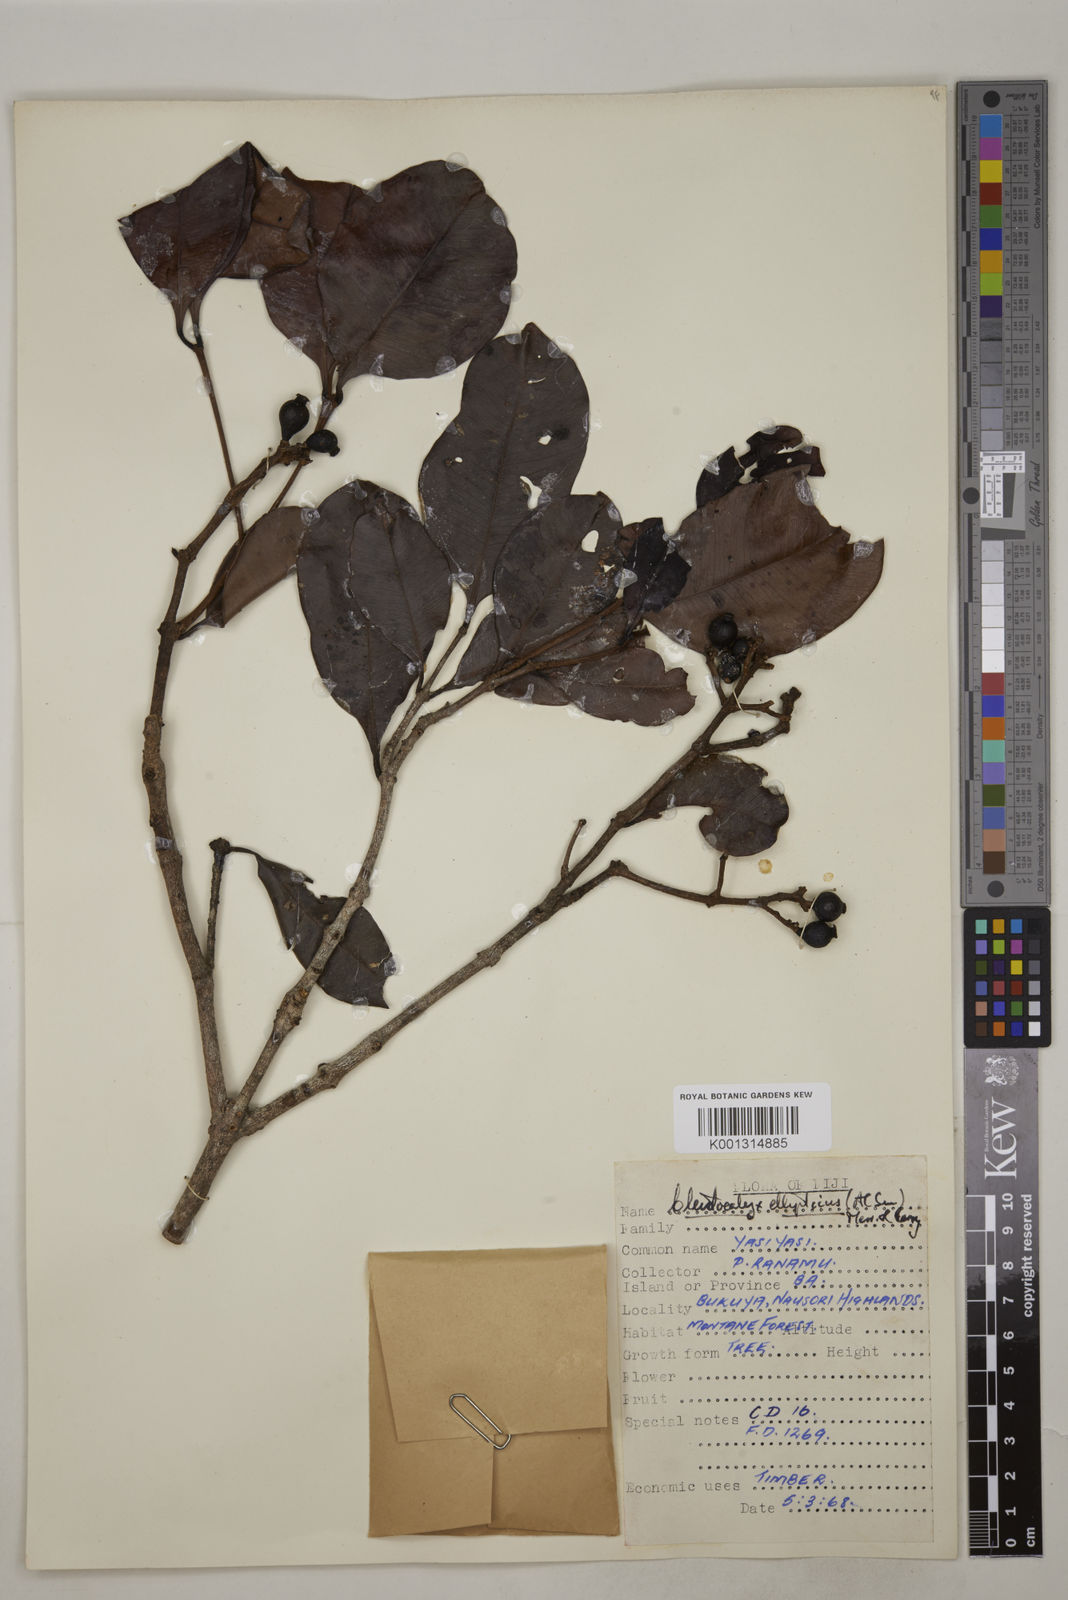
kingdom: Plantae
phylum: Tracheophyta
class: Magnoliopsida
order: Myrtales
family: Myrtaceae
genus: Syzygium
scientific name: Syzygium seemannii
